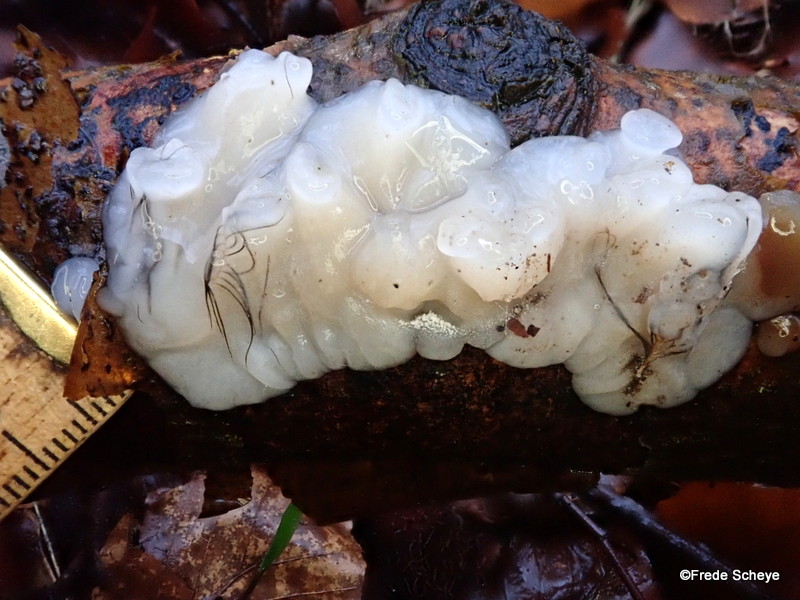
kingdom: Fungi
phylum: Basidiomycota
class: Agaricomycetes
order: Auriculariales
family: Auriculariaceae
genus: Exidia
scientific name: Exidia thuretiana
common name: hvidlig bævretop
